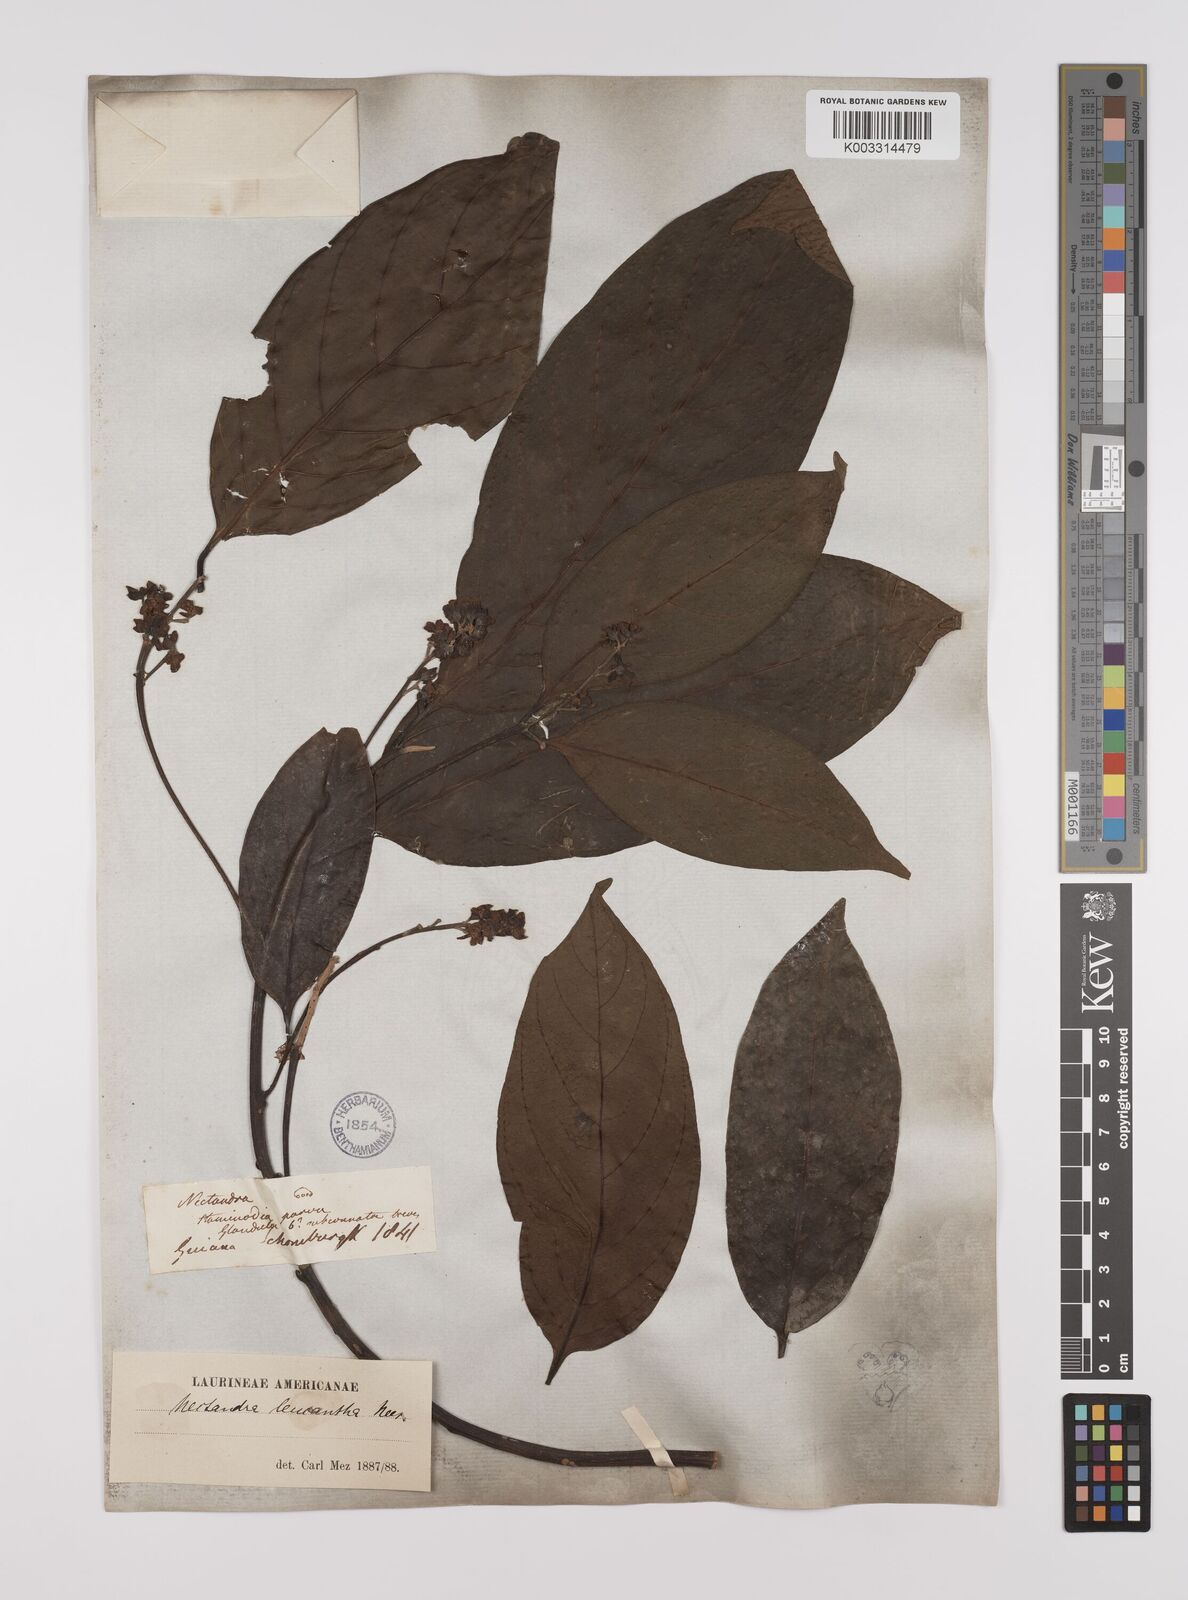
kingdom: Plantae
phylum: Tracheophyta
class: Magnoliopsida
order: Laurales
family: Lauraceae
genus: Nectandra
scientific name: Nectandra leucantha
